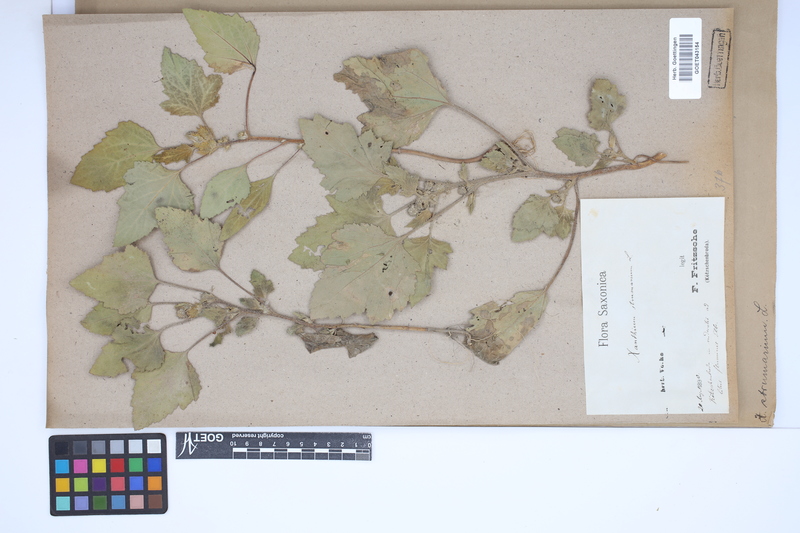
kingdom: Plantae
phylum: Tracheophyta
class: Magnoliopsida
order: Asterales
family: Asteraceae
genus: Xanthium
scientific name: Xanthium strumarium
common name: Rough cocklebur
